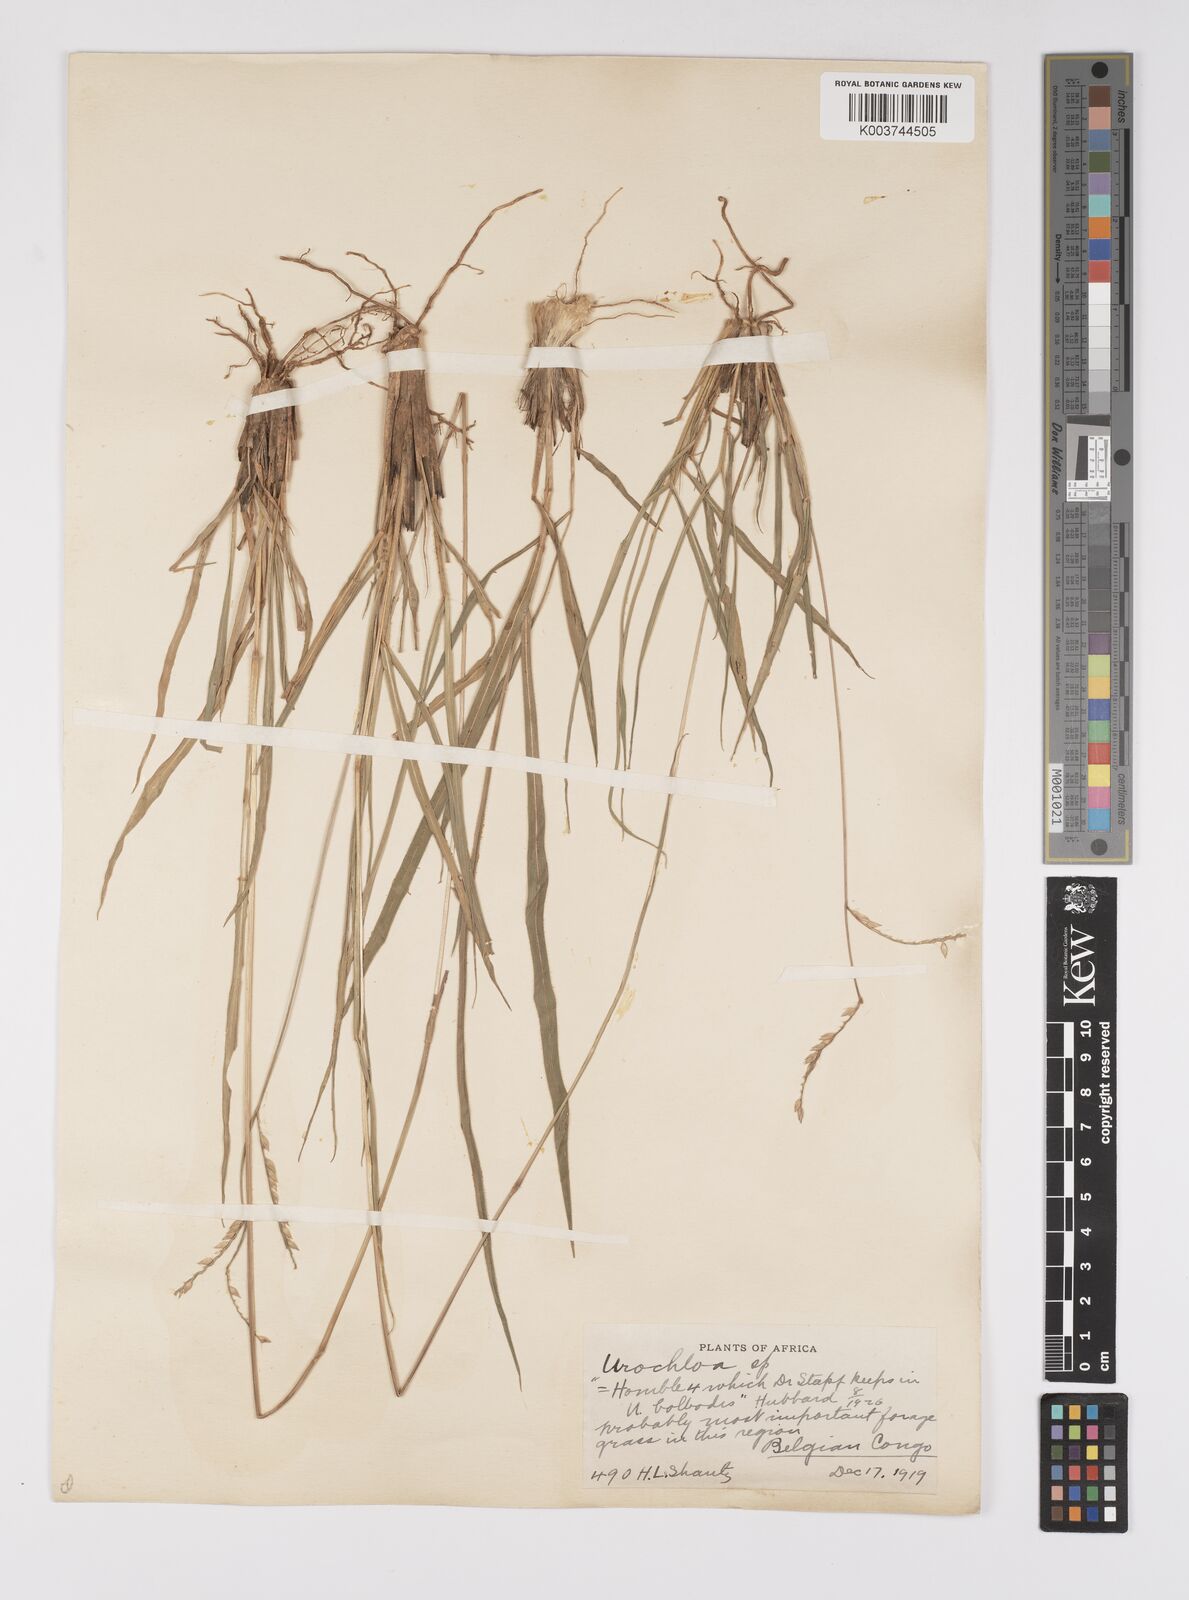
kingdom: Plantae
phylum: Tracheophyta
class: Liliopsida
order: Poales
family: Poaceae
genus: Urochloa
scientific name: Urochloa oligotricha
